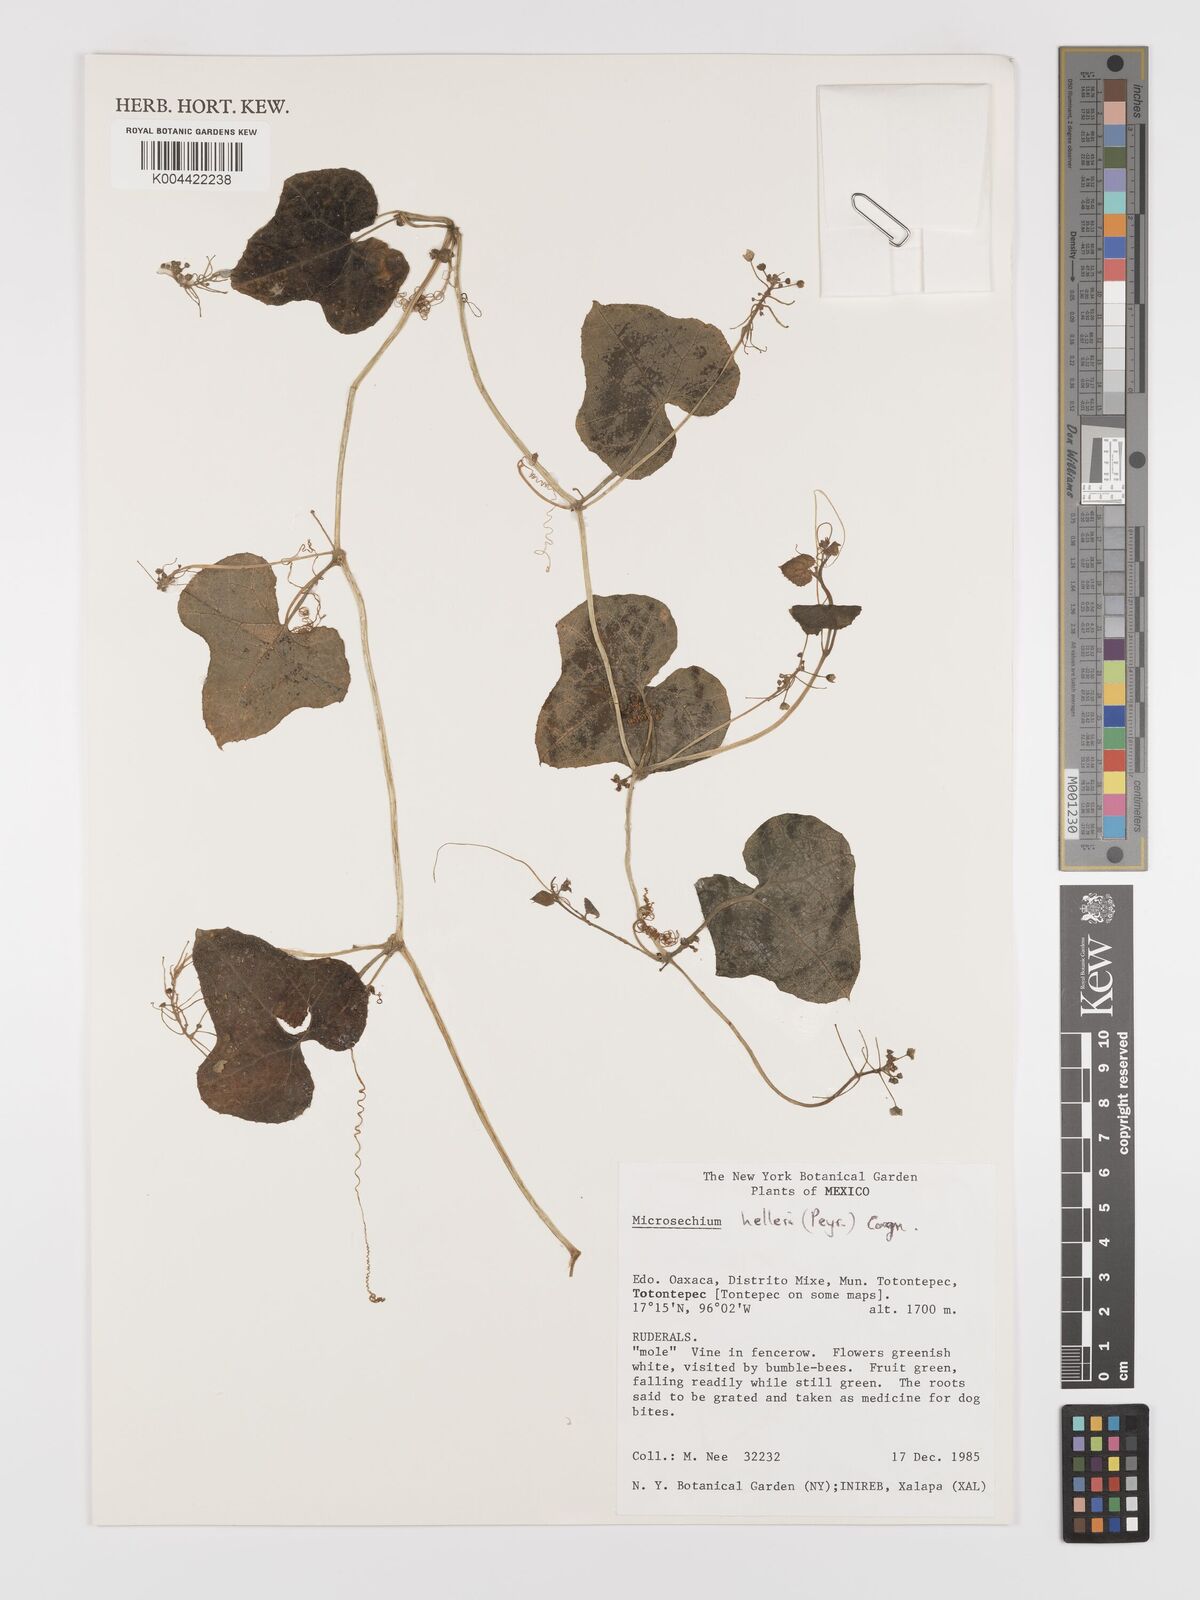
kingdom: Plantae
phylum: Tracheophyta
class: Magnoliopsida
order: Cucurbitales
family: Cucurbitaceae
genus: Microsechium
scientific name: Microsechium palmatum
